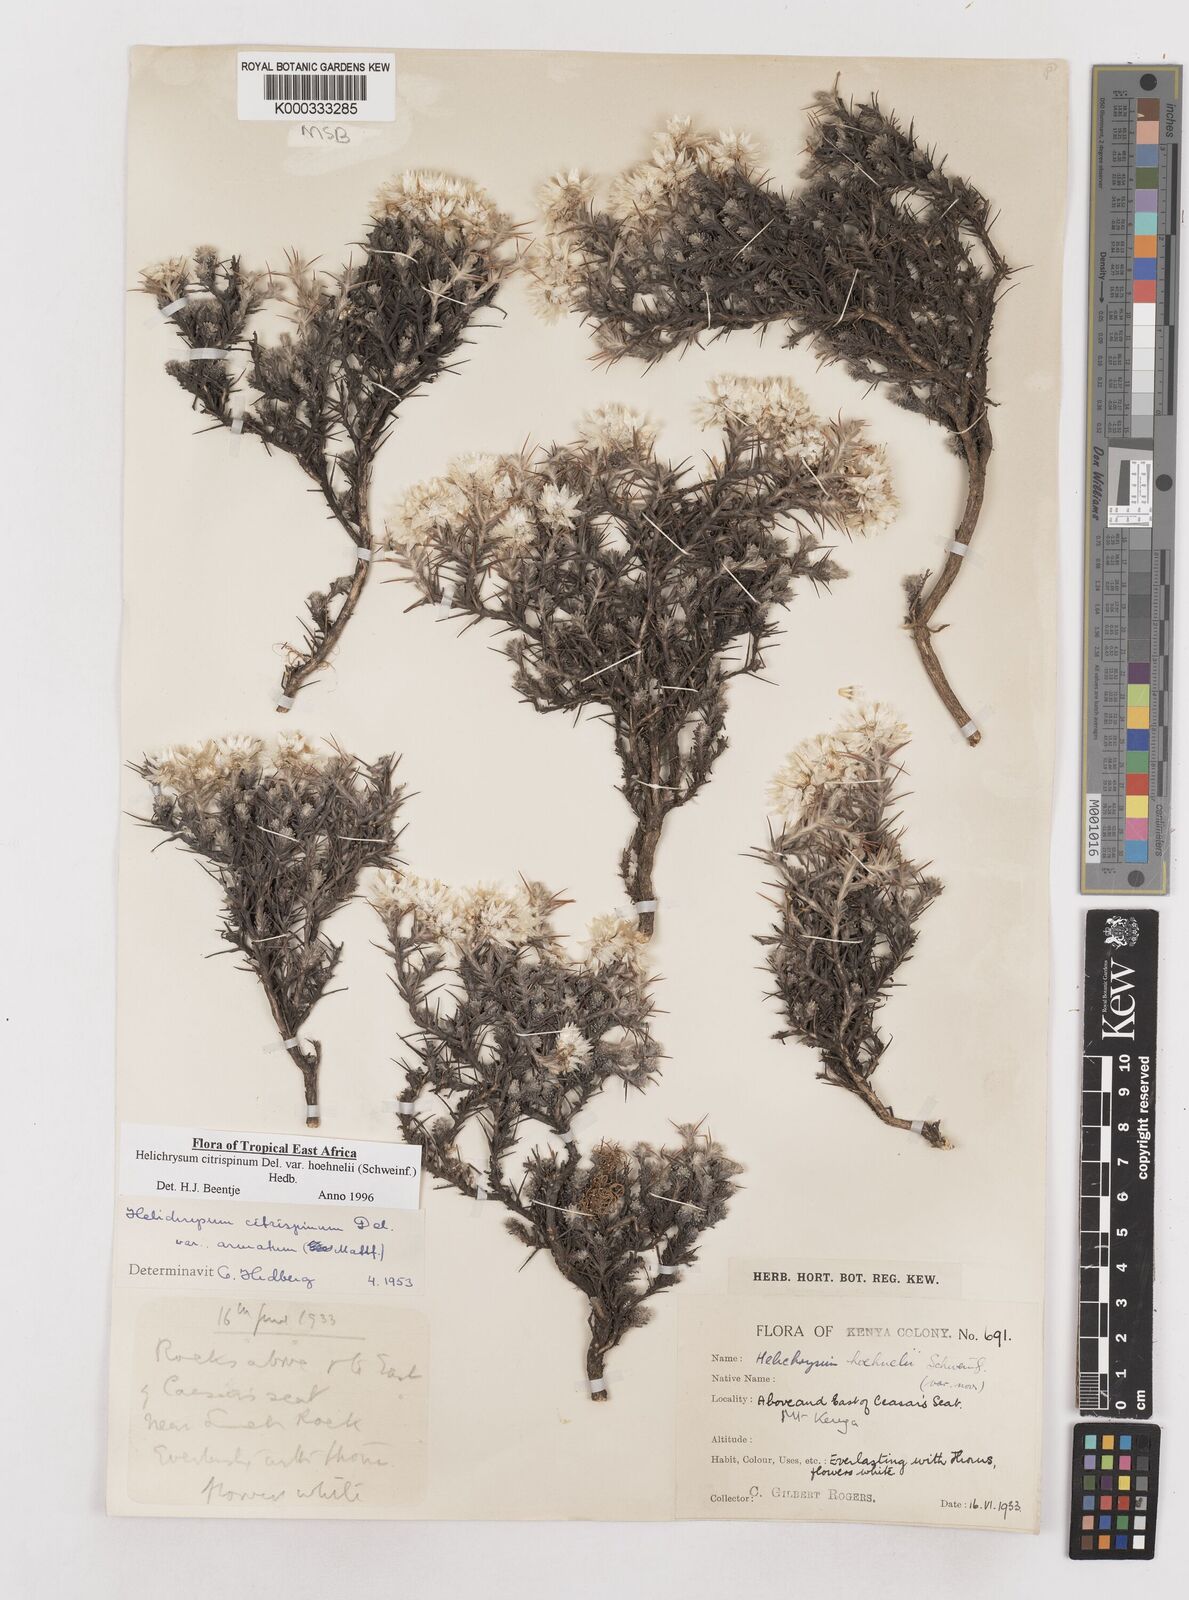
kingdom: Plantae
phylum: Tracheophyta
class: Magnoliopsida
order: Asterales
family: Asteraceae
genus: Helichrysum
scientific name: Helichrysum citrispinum
